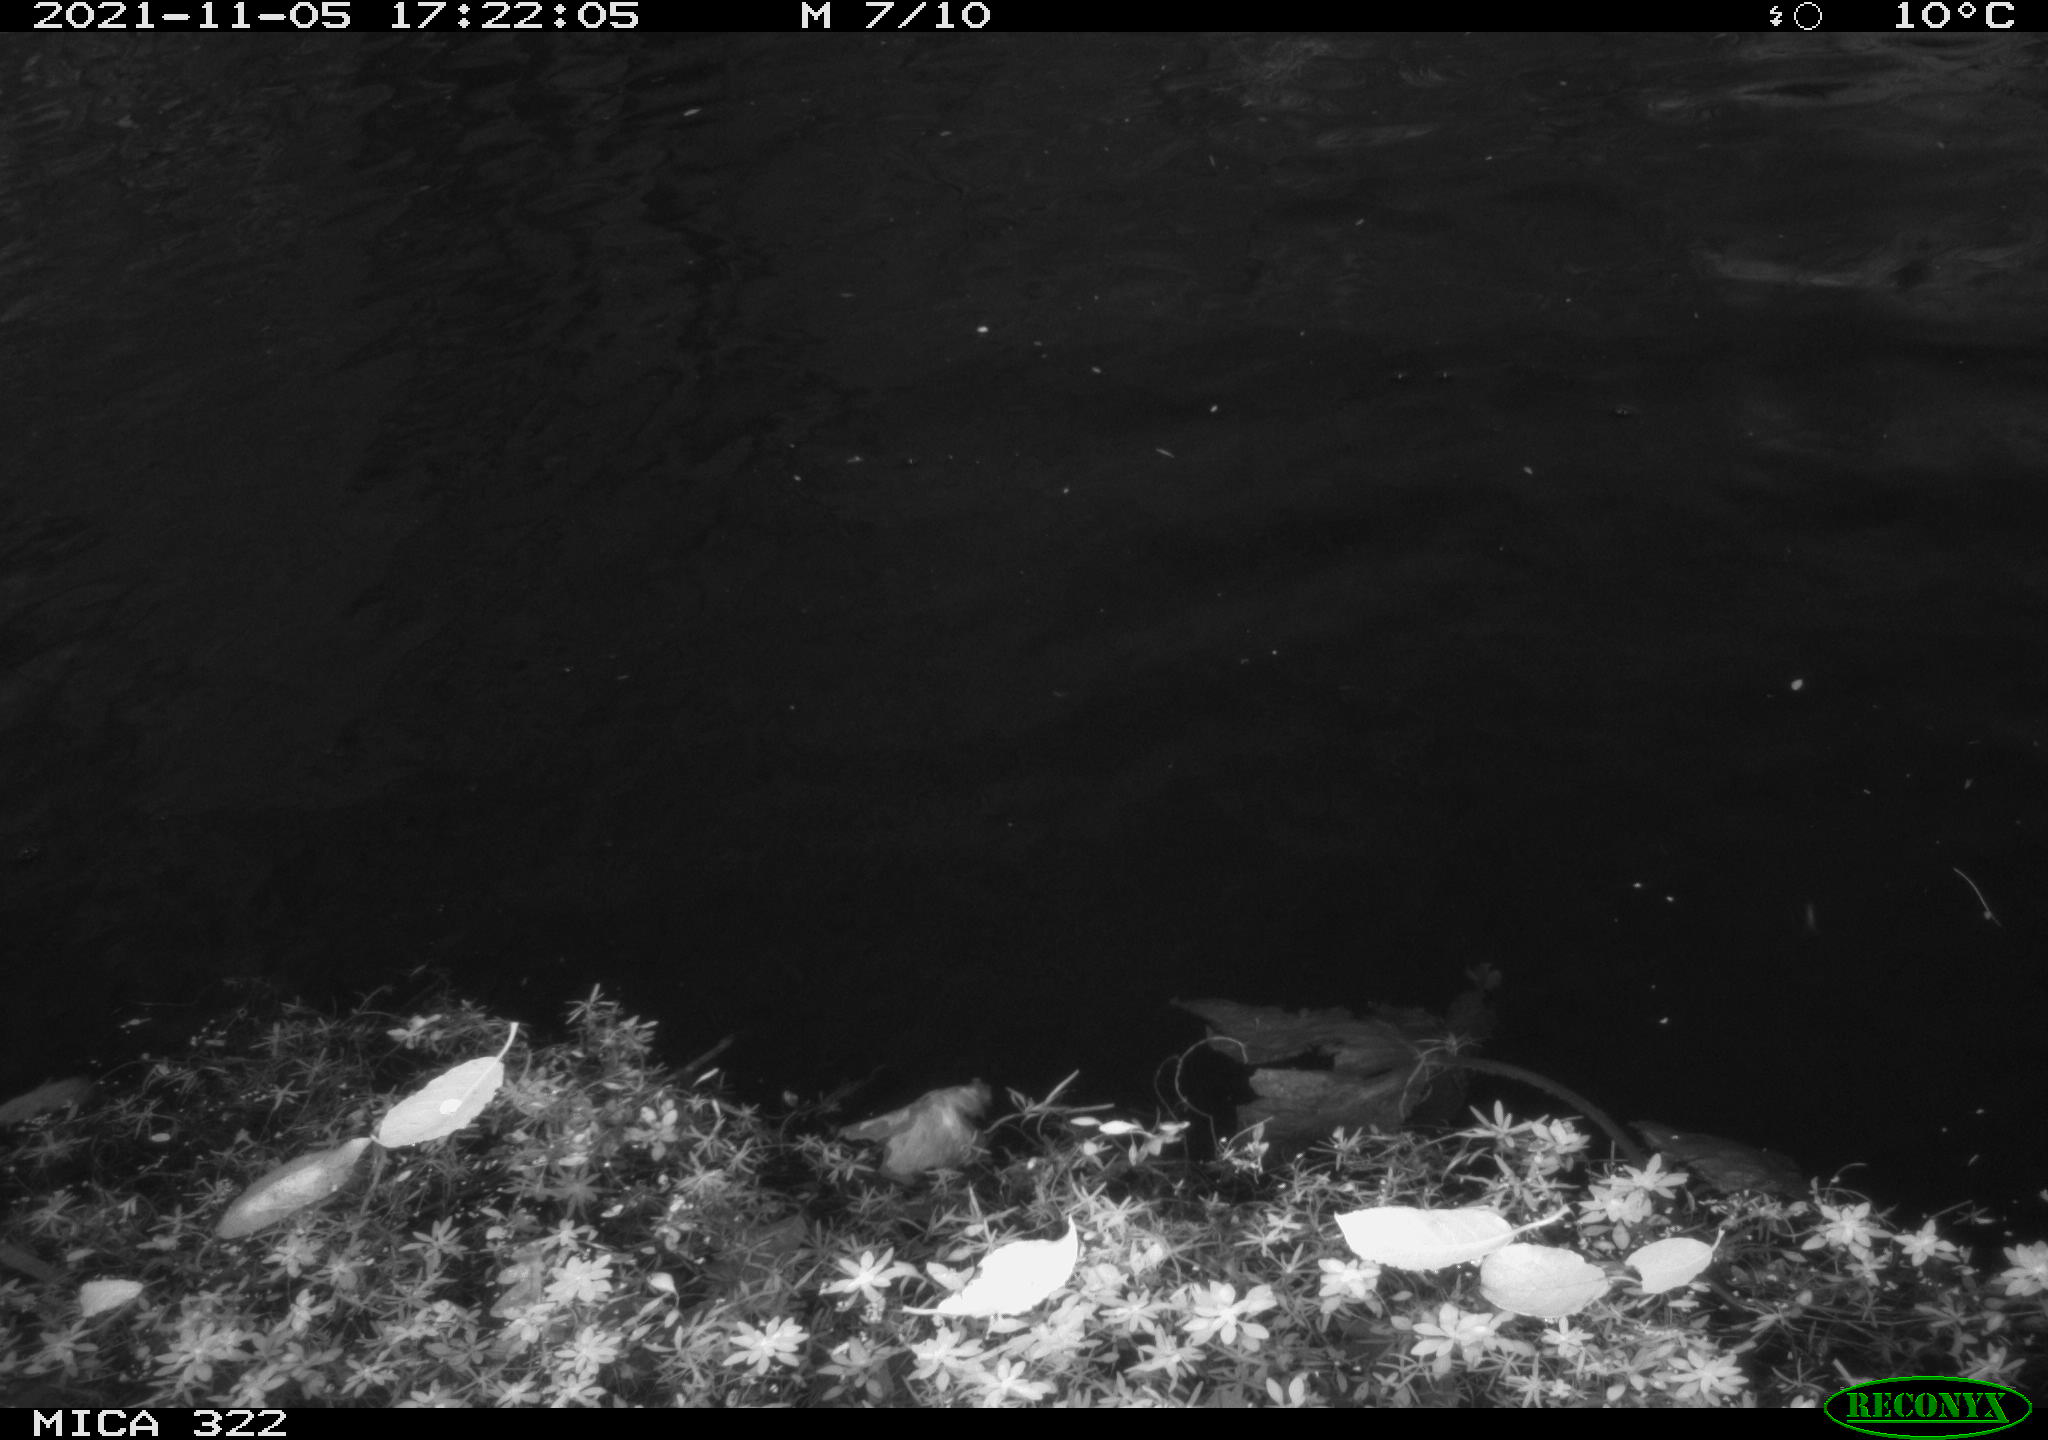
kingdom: Animalia
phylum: Chordata
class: Aves
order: Gruiformes
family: Rallidae
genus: Gallinula
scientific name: Gallinula chloropus
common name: Common moorhen
